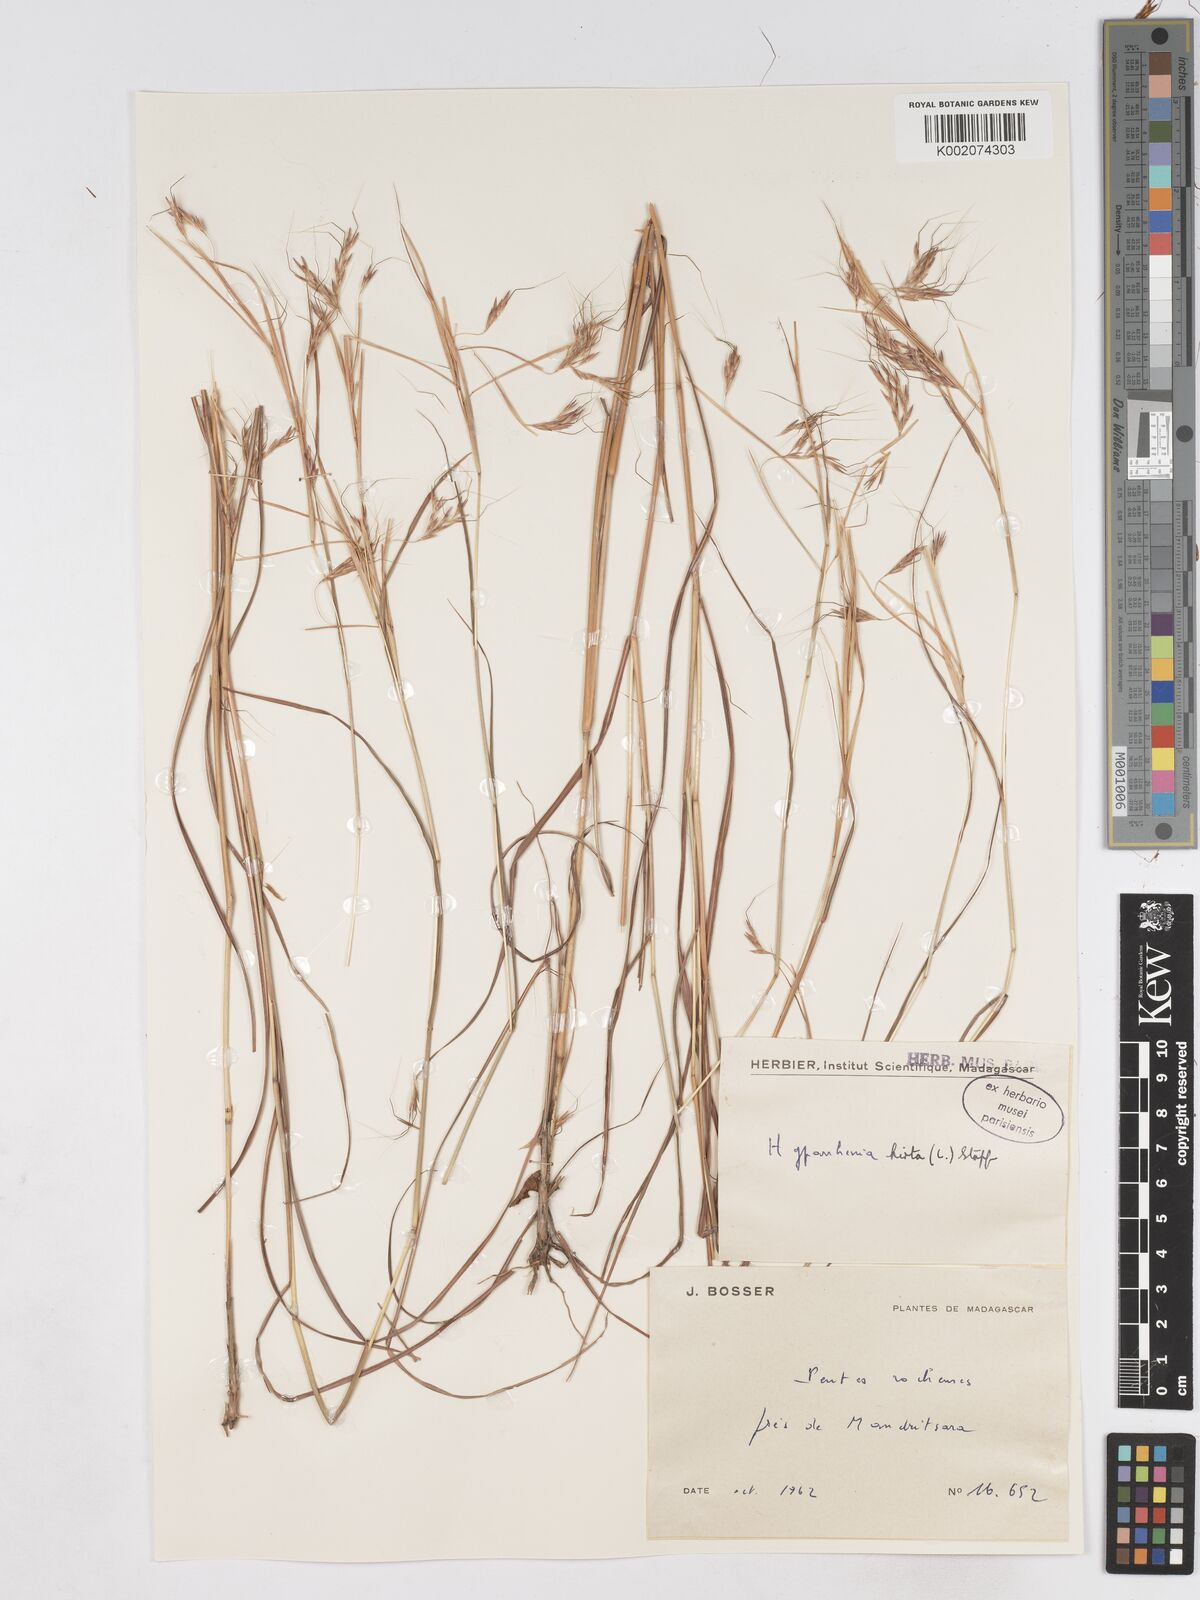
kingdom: Plantae
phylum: Tracheophyta
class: Liliopsida
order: Poales
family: Poaceae
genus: Hyparrhenia
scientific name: Hyparrhenia hirta
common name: Thatching grass
